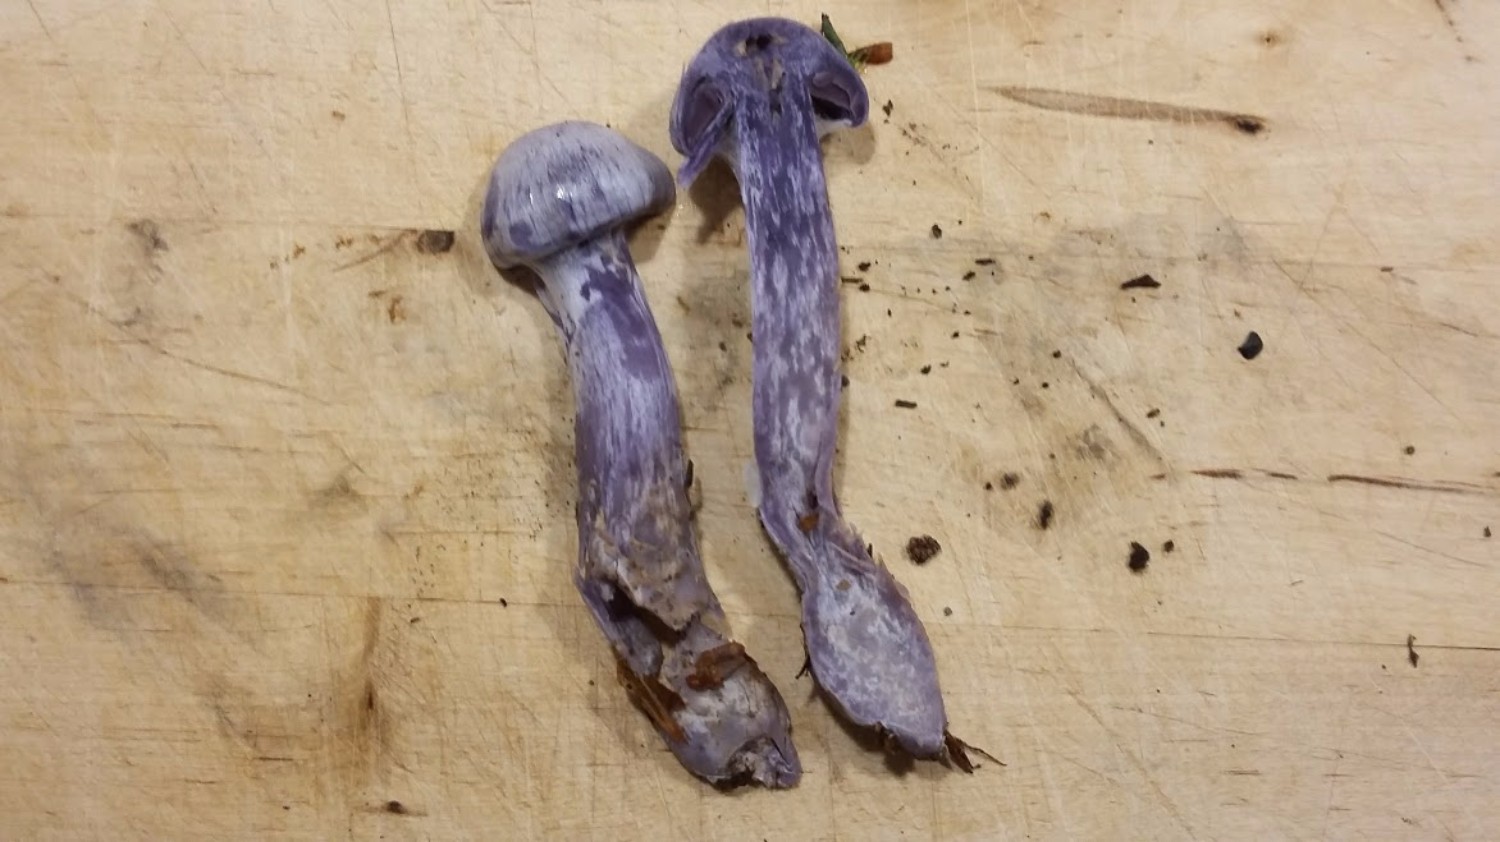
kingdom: Fungi
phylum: Basidiomycota
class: Agaricomycetes
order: Agaricales
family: Cortinariaceae
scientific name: Cortinariaceae
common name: slørhatfamilien
